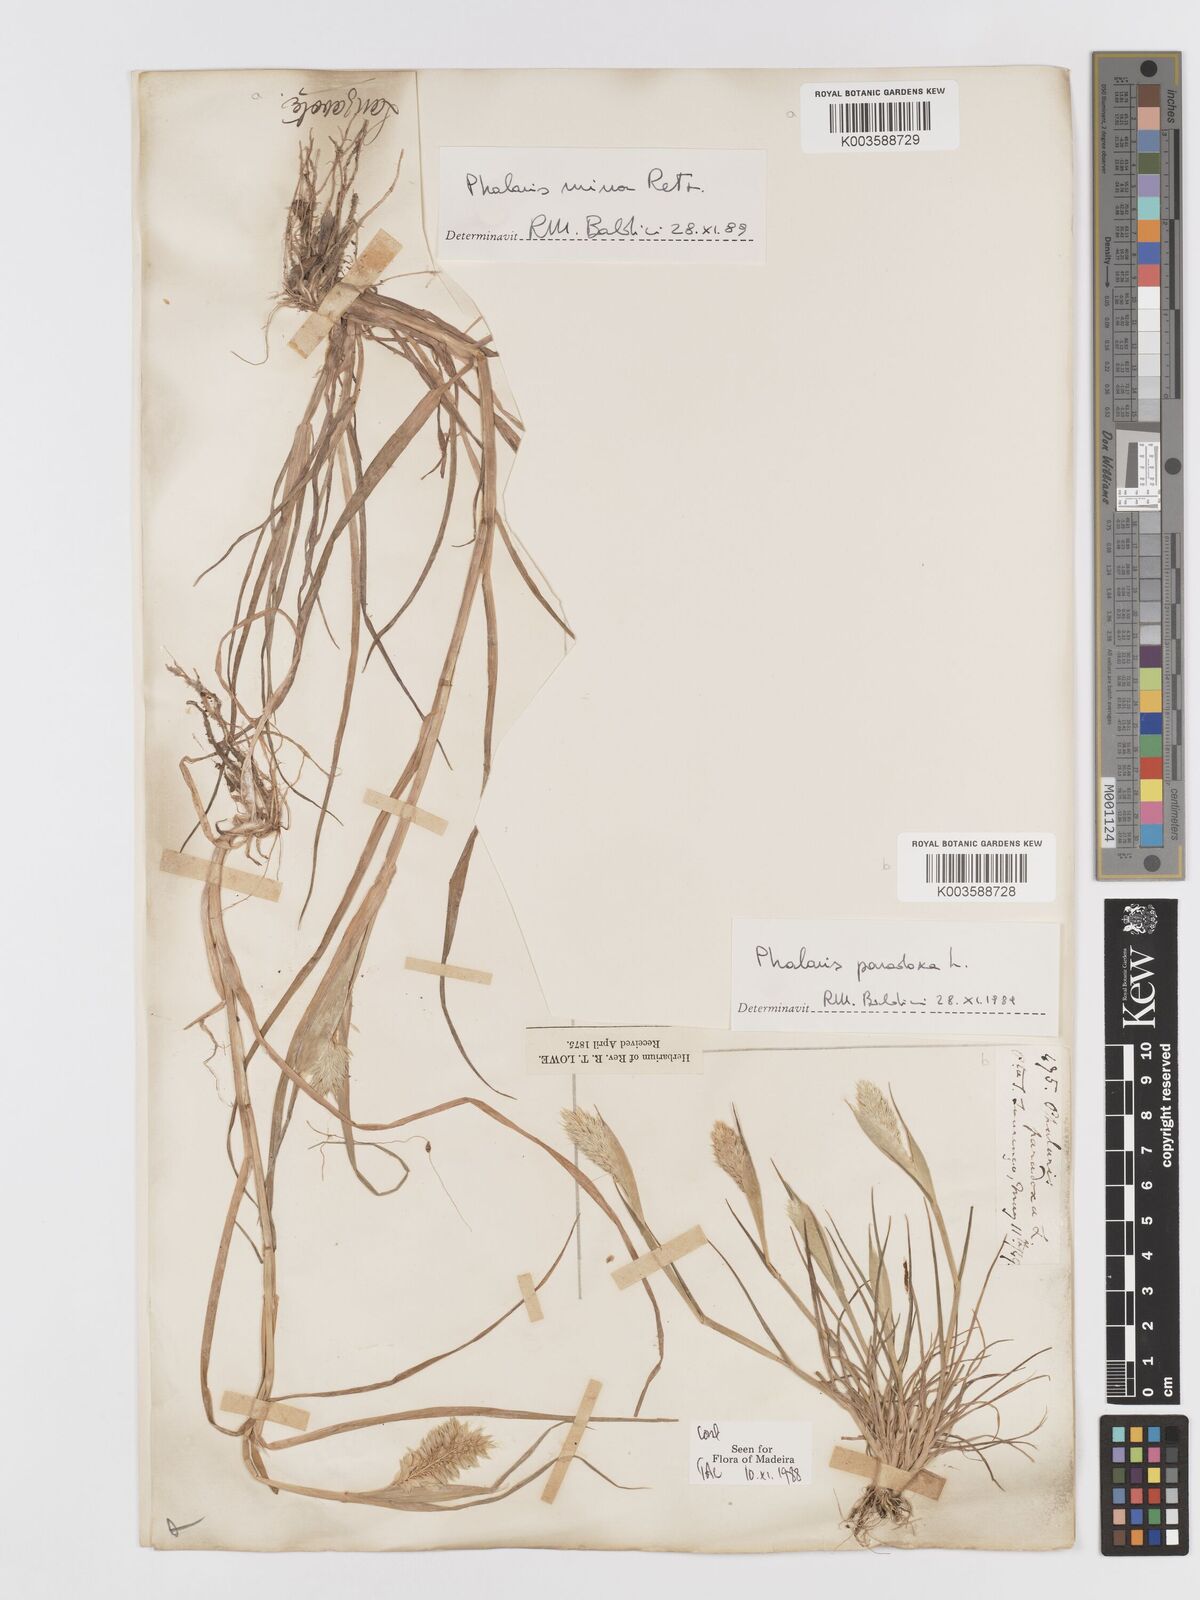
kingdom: Plantae
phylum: Tracheophyta
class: Liliopsida
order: Poales
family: Poaceae
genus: Phalaris
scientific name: Phalaris paradoxa
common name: Awned canary-grass
